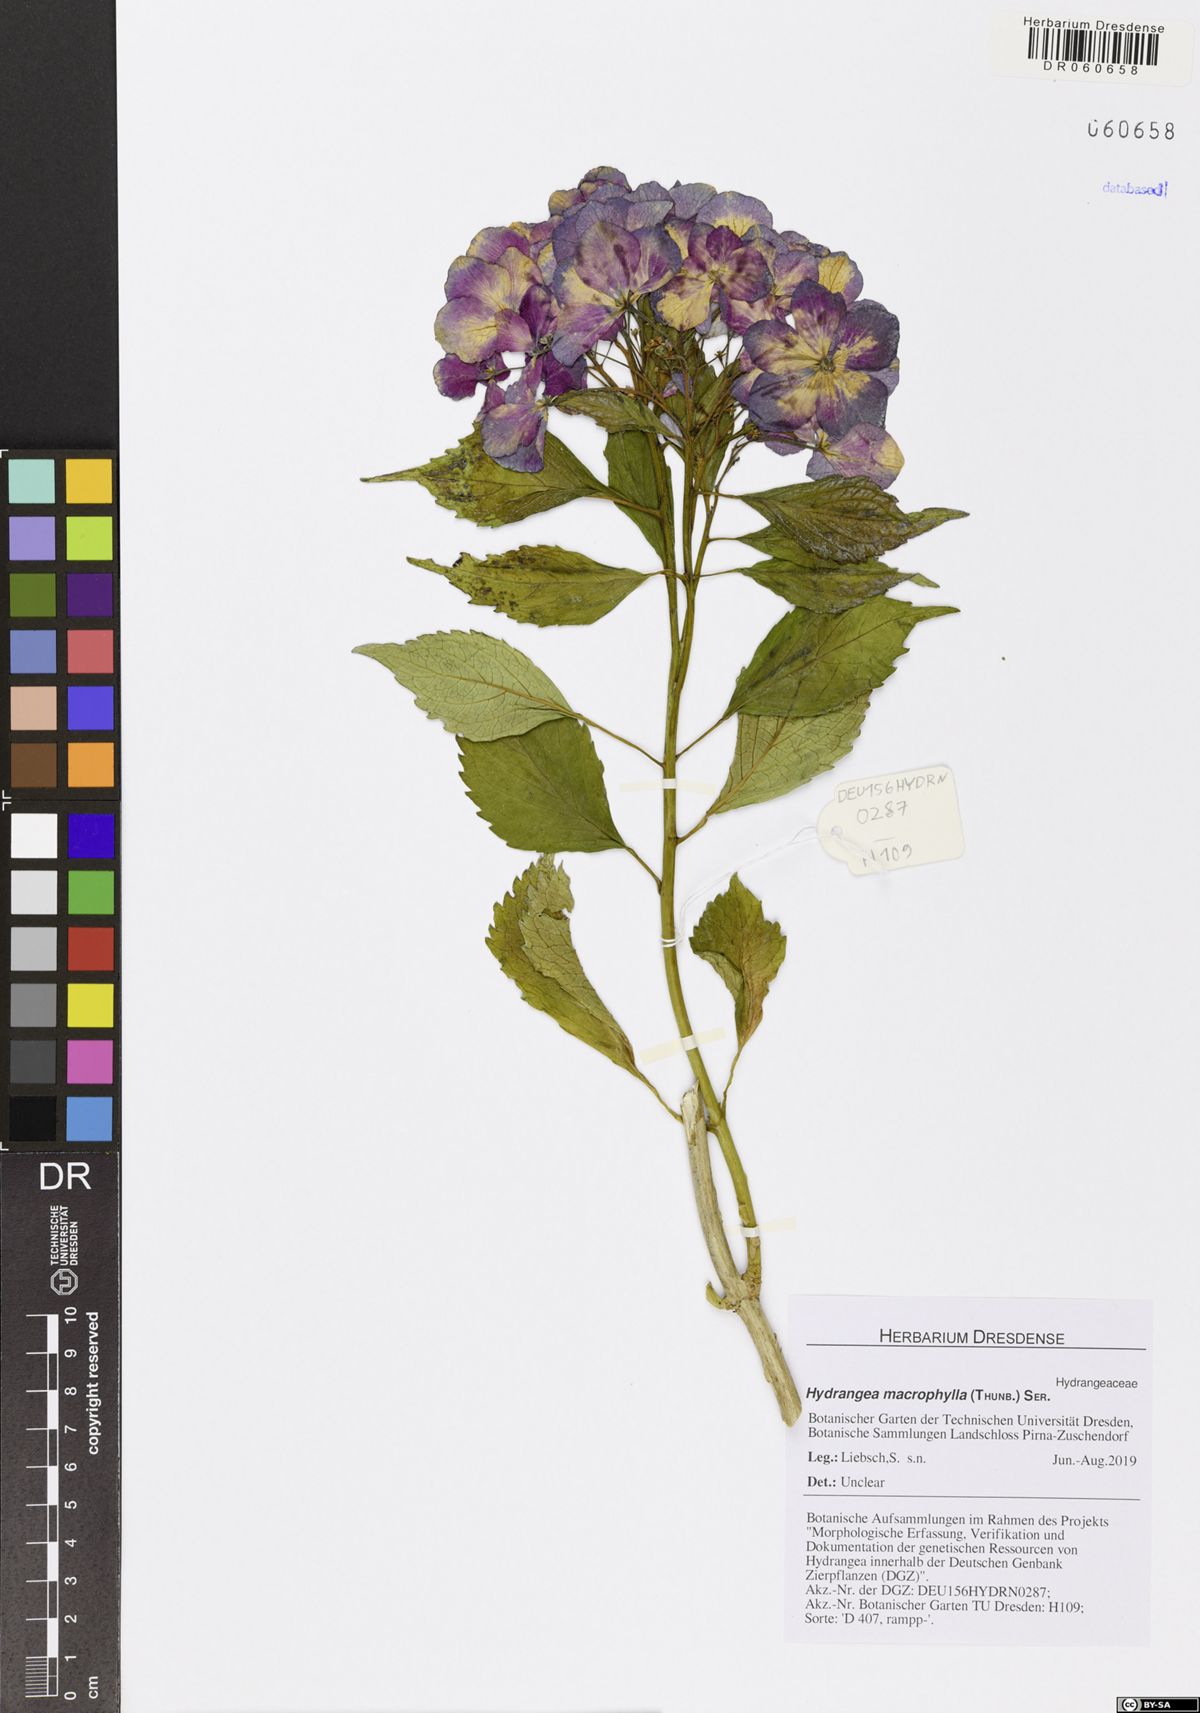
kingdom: Plantae
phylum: Tracheophyta
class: Magnoliopsida
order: Cornales
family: Hydrangeaceae
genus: Hydrangea
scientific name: Hydrangea macrophylla
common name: Hydrangea
